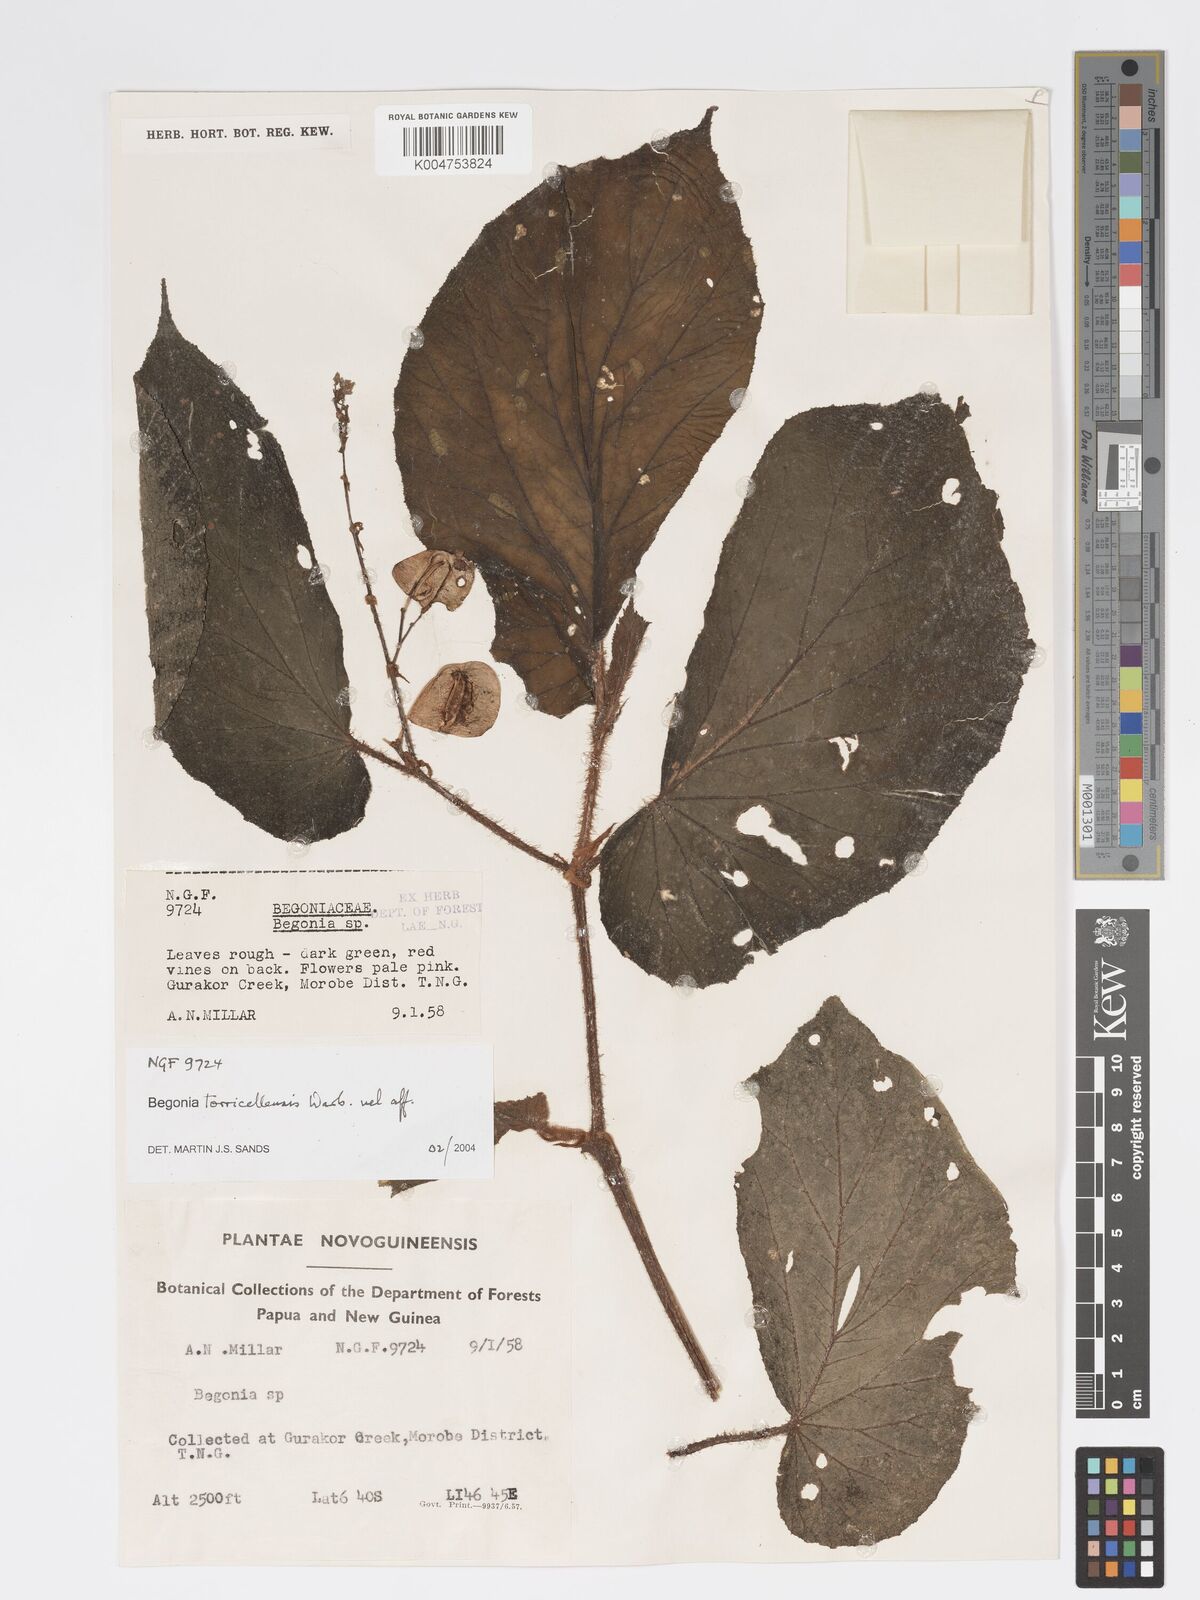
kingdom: Plantae
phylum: Tracheophyta
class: Magnoliopsida
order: Cucurbitales
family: Begoniaceae
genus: Begonia
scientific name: Begonia torricellensis
